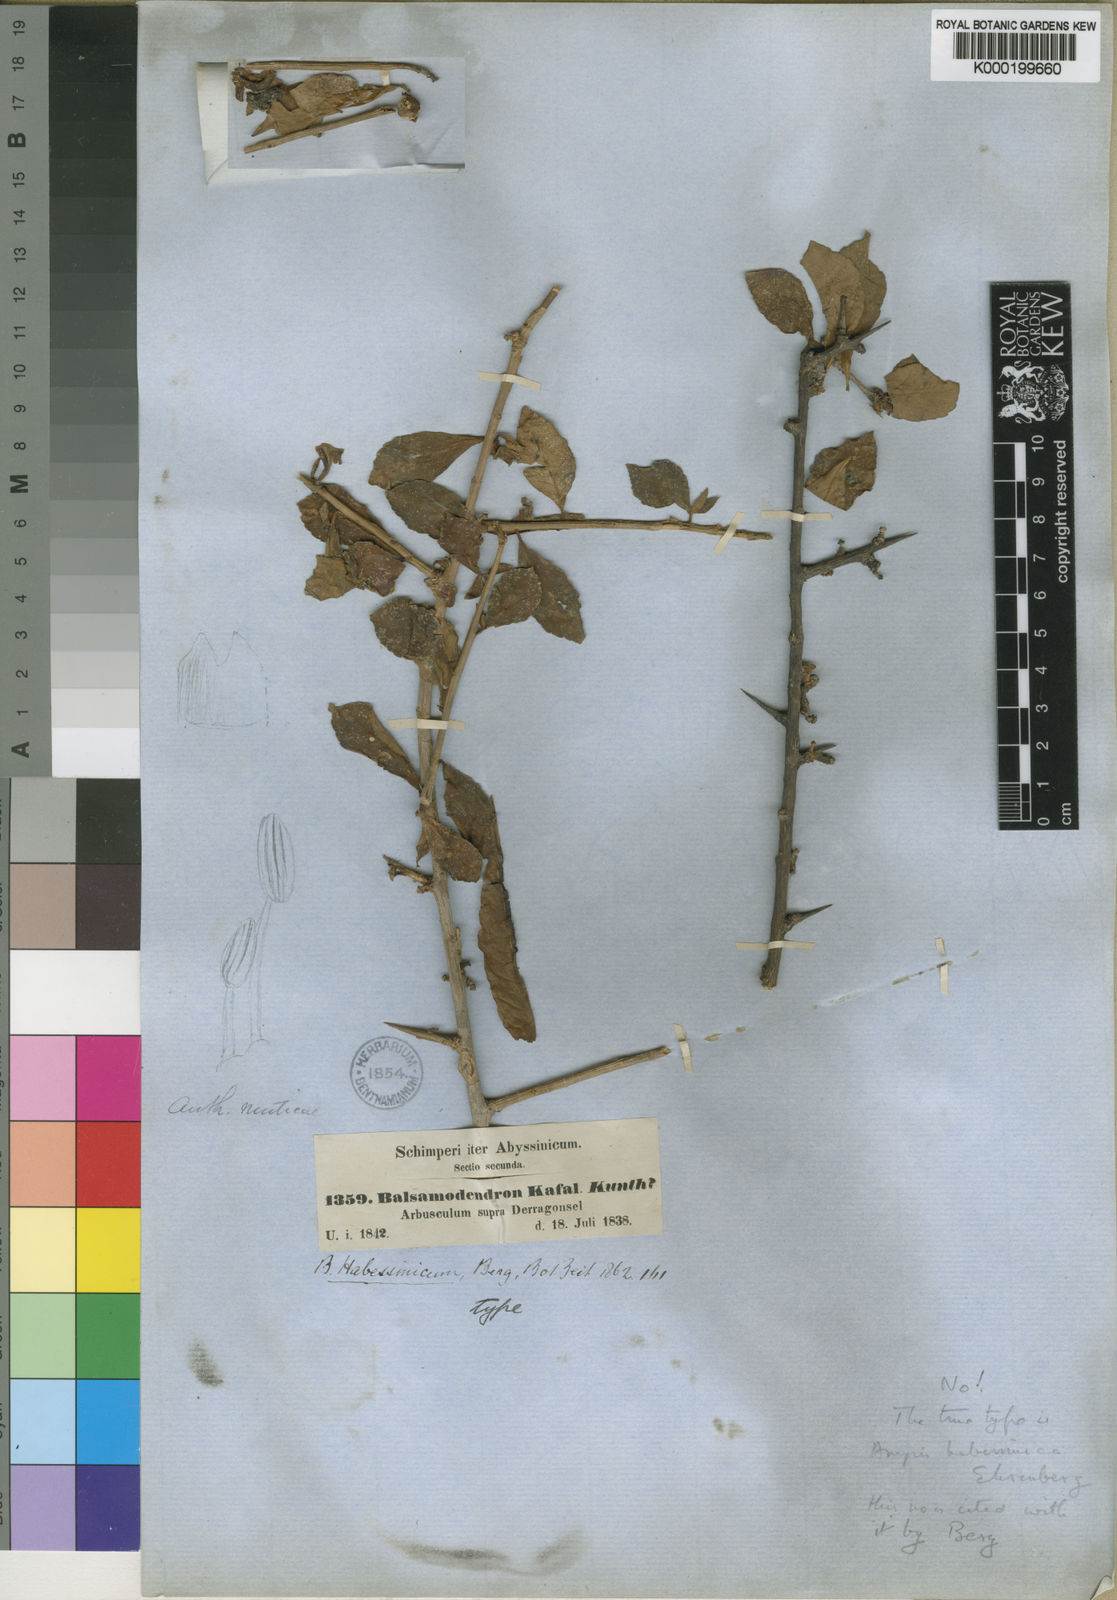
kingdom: Plantae
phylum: Tracheophyta
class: Magnoliopsida
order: Sapindales
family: Burseraceae
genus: Commiphora
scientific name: Commiphora kua
